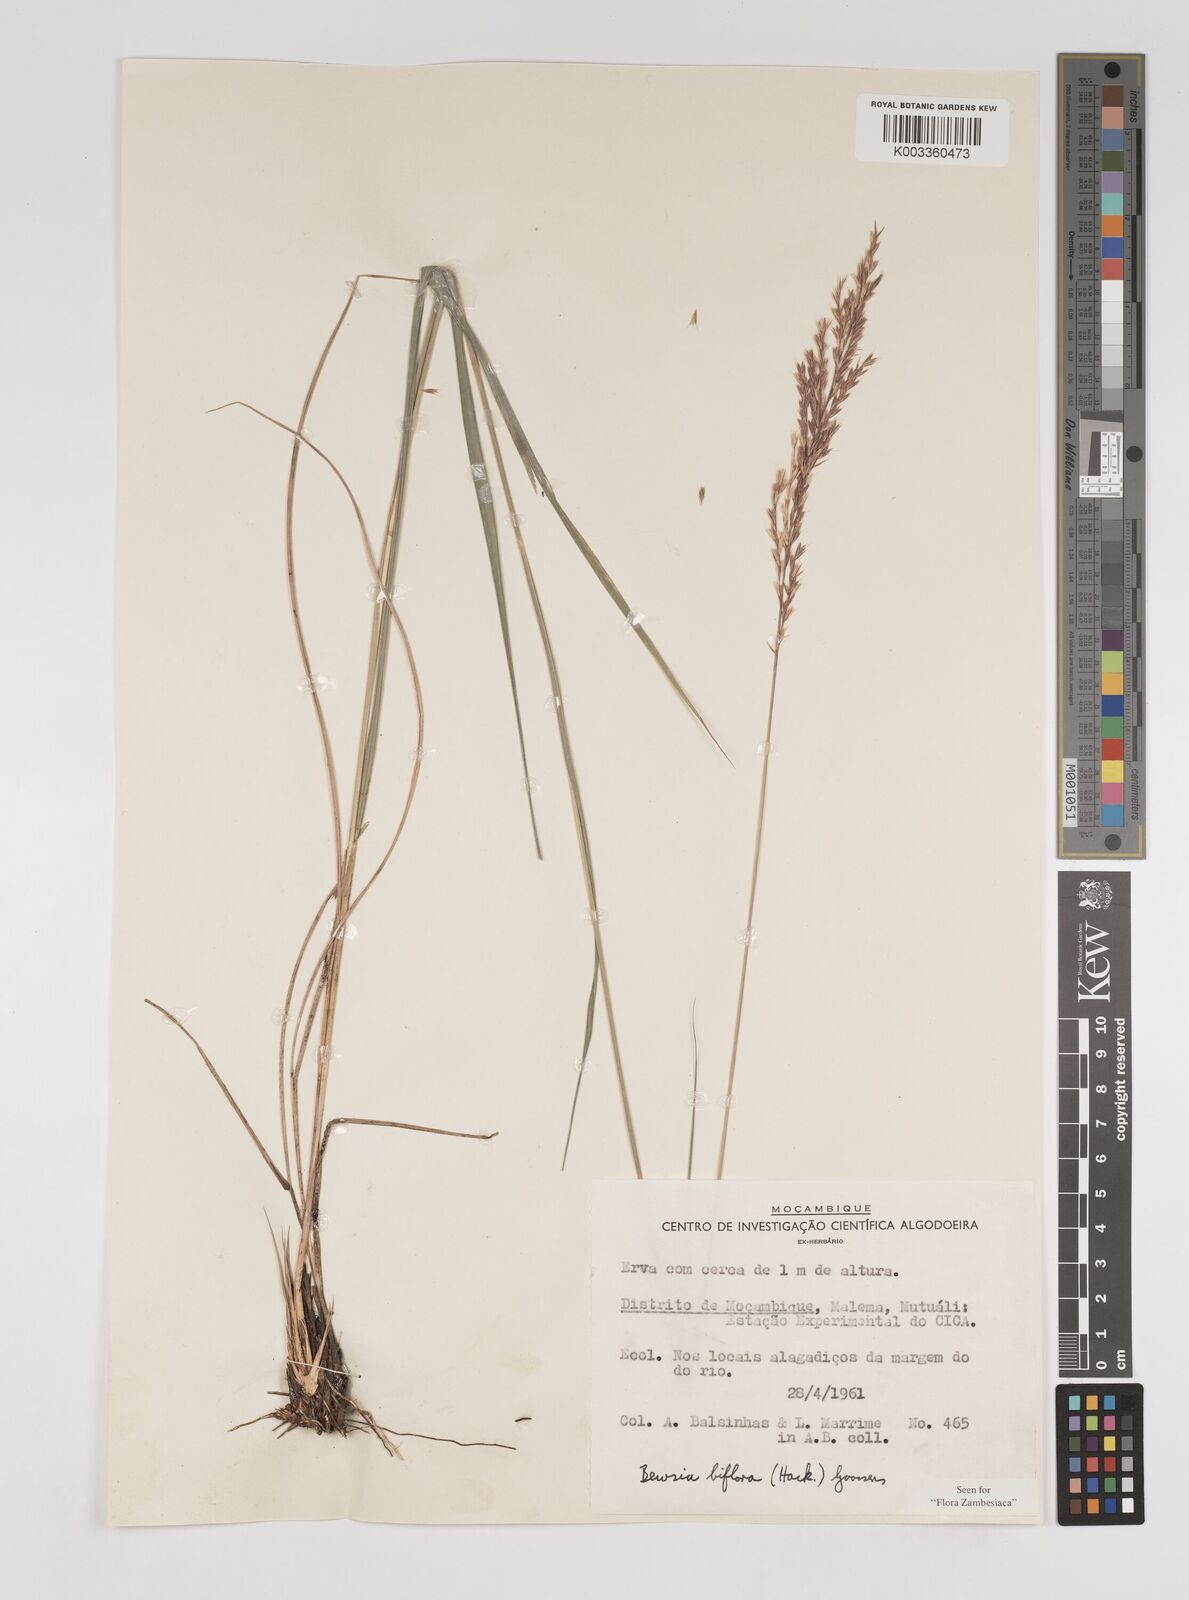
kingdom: Plantae
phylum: Tracheophyta
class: Liliopsida
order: Poales
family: Poaceae
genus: Bewsia
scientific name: Bewsia biflora
